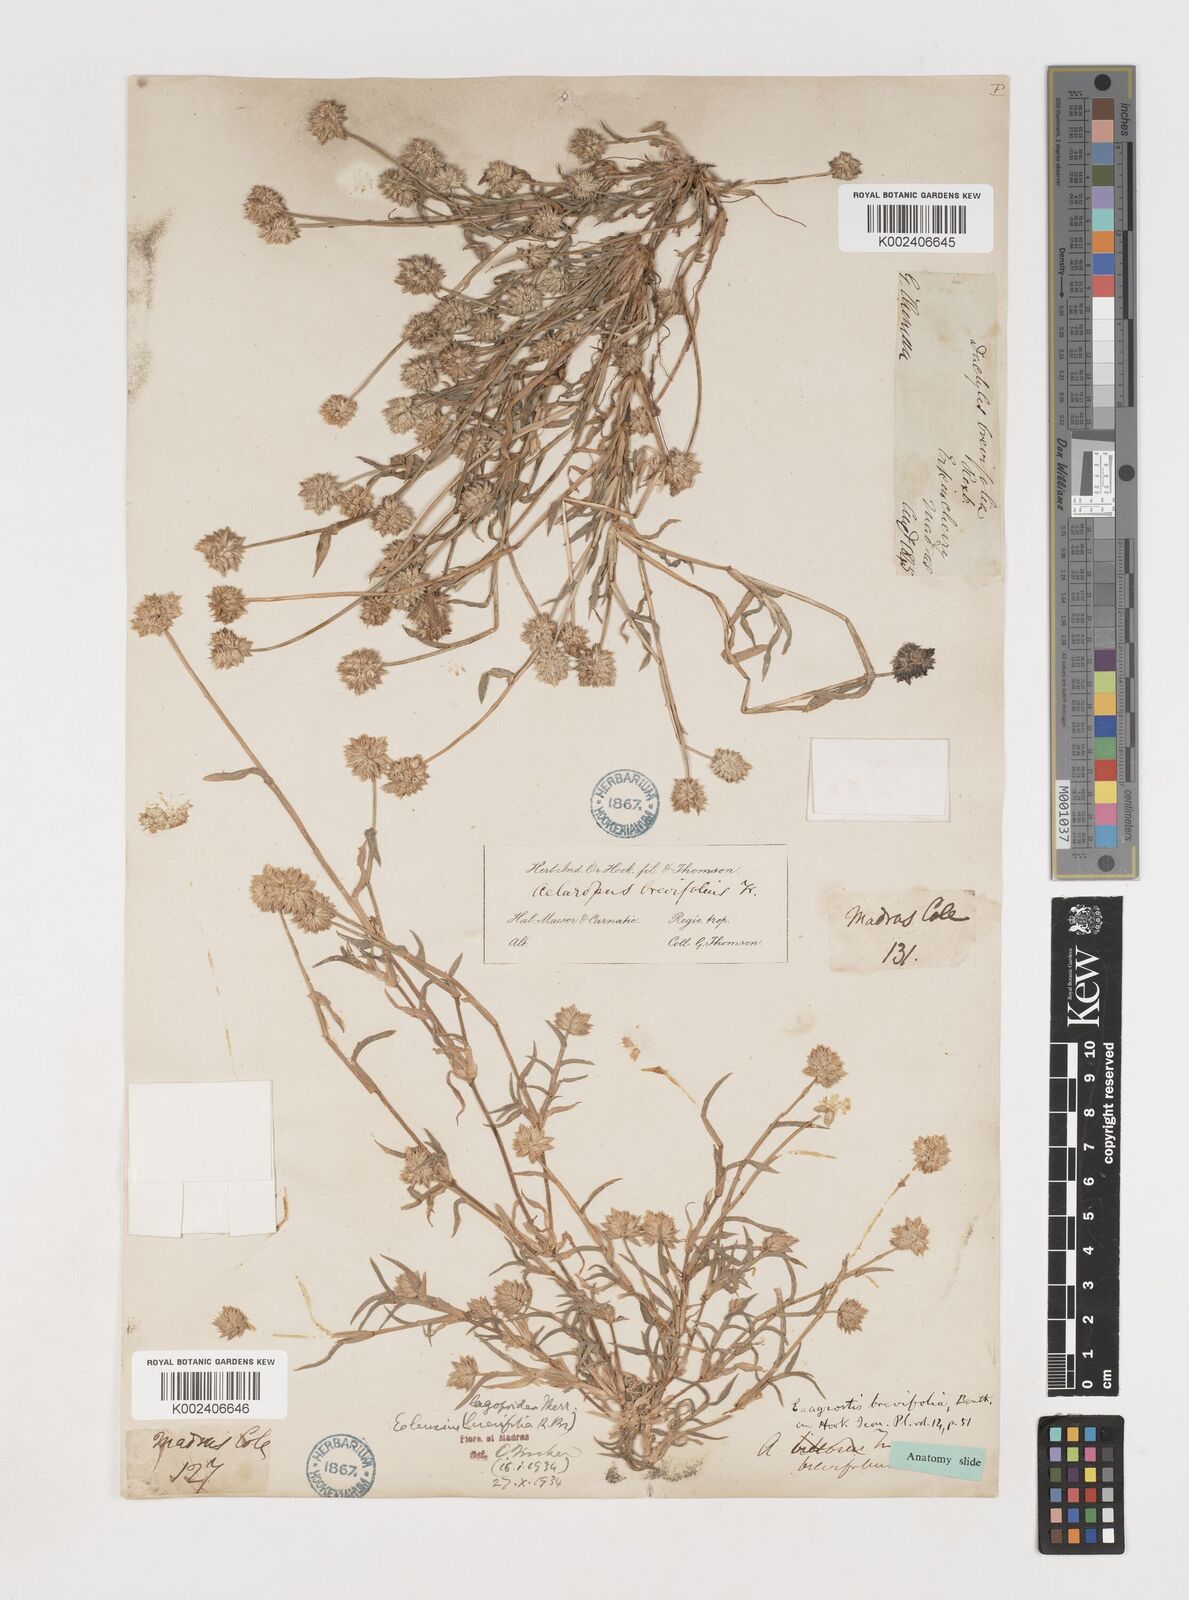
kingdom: Plantae
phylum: Tracheophyta
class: Liliopsida
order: Poales
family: Poaceae
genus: Coelachyrum
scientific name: Coelachyrum lagopoides
